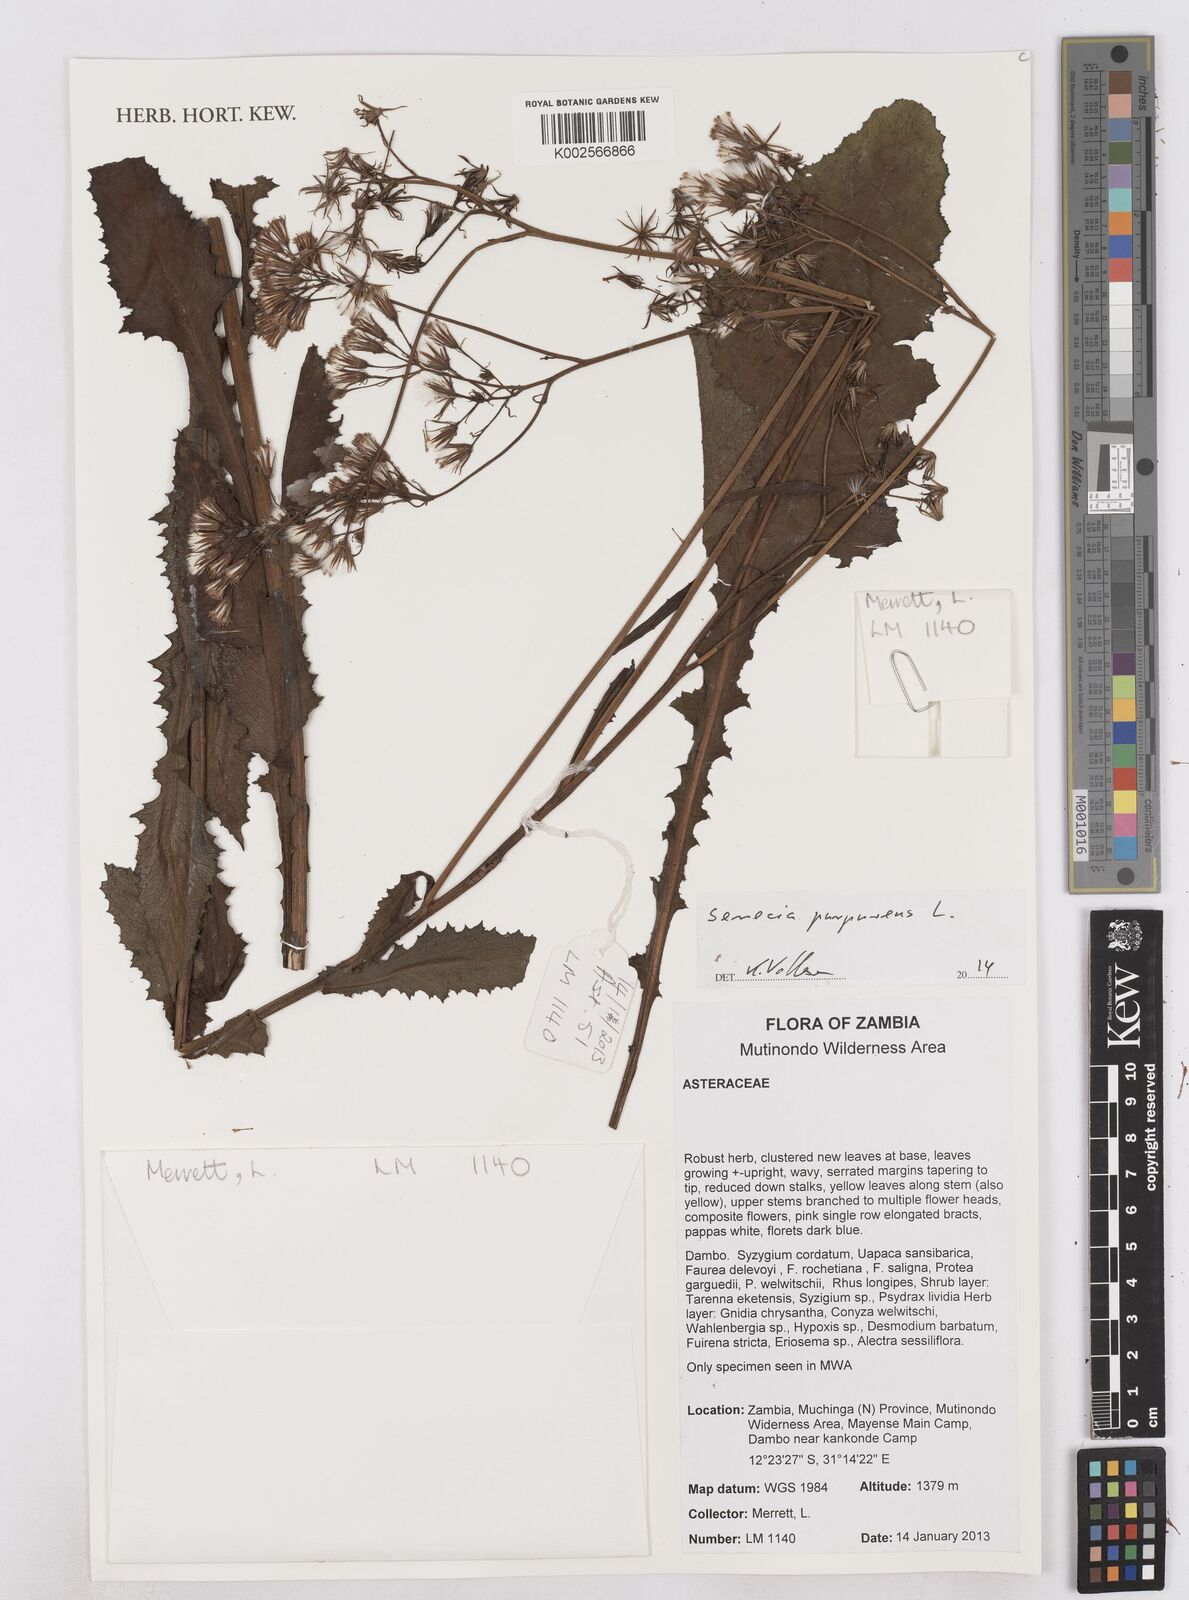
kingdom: Plantae
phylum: Tracheophyta
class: Magnoliopsida
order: Asterales
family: Asteraceae
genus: Senecio
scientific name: Senecio purpureus
